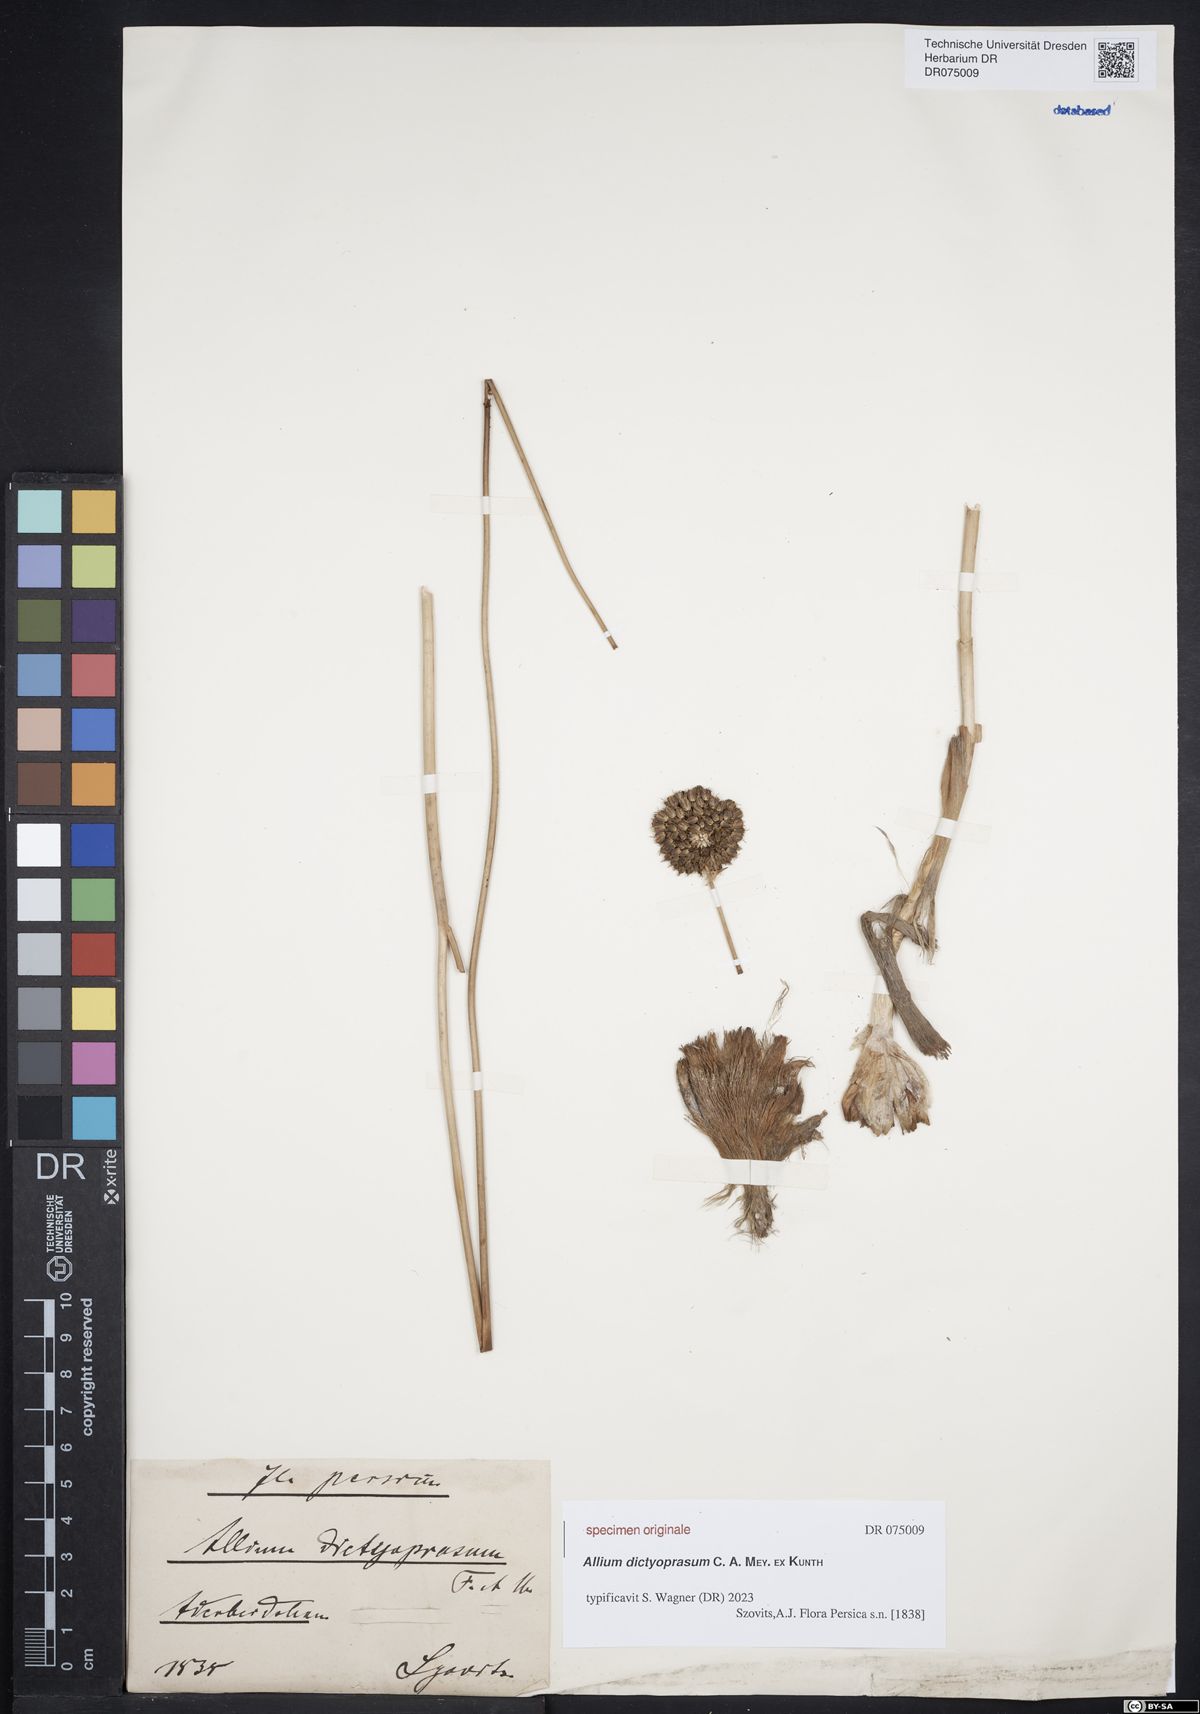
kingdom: Plantae
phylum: Tracheophyta
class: Liliopsida
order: Asparagales
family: Amaryllidaceae
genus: Allium
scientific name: Allium dictyoprasum
